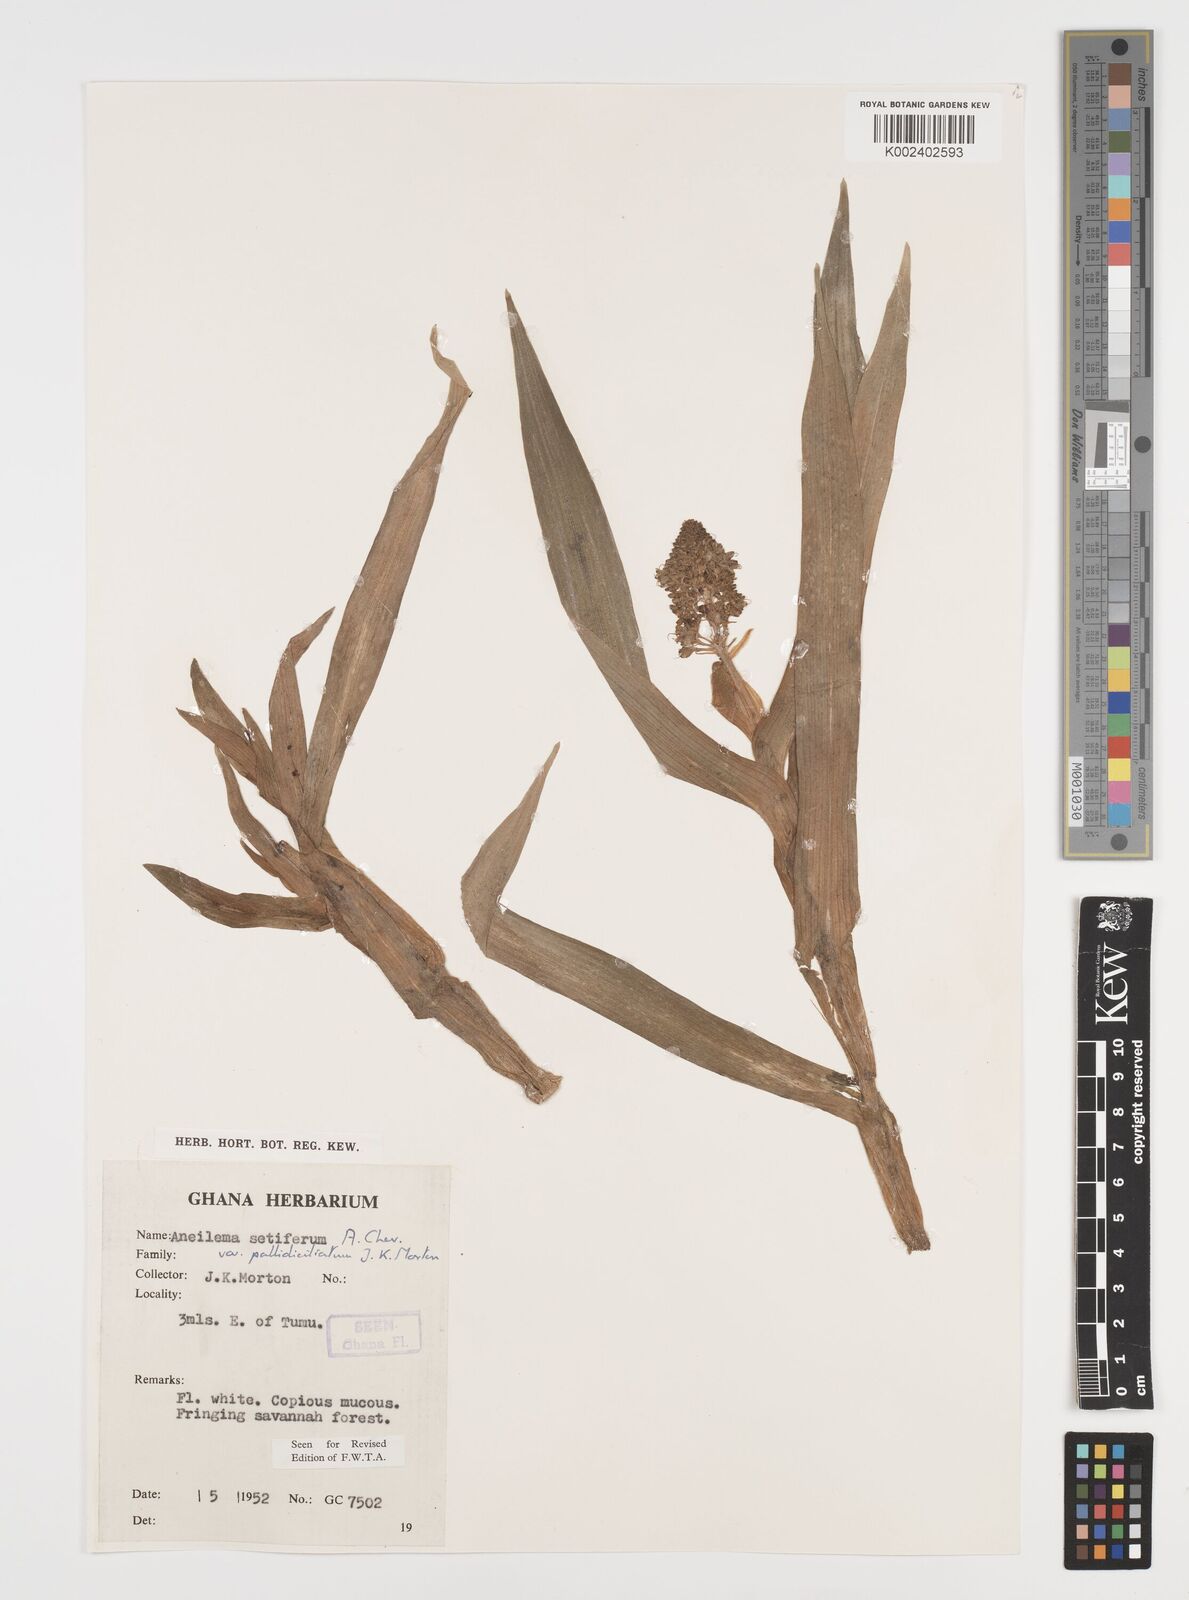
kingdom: Plantae
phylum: Tracheophyta
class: Liliopsida
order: Commelinales
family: Commelinaceae
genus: Aneilema
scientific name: Aneilema setiferum
